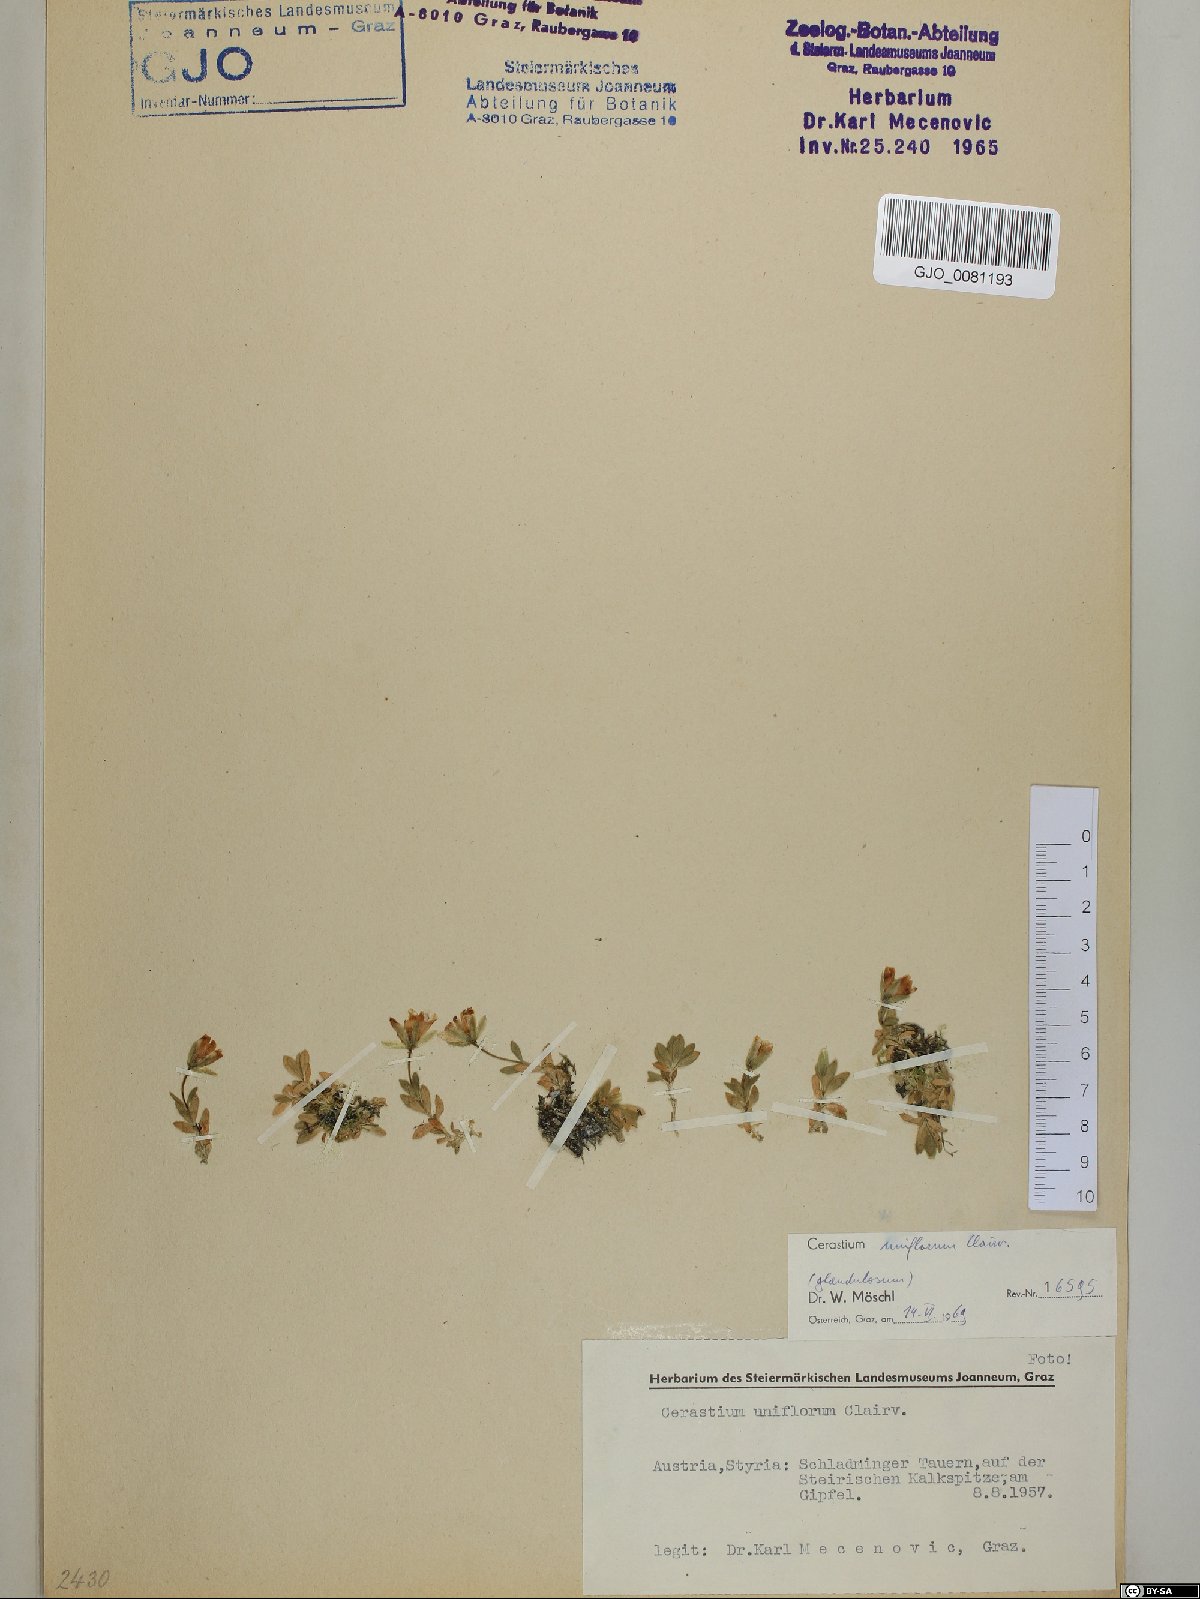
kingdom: Plantae
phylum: Tracheophyta
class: Magnoliopsida
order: Caryophyllales
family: Caryophyllaceae
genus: Cerastium
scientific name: Cerastium uniflorum
